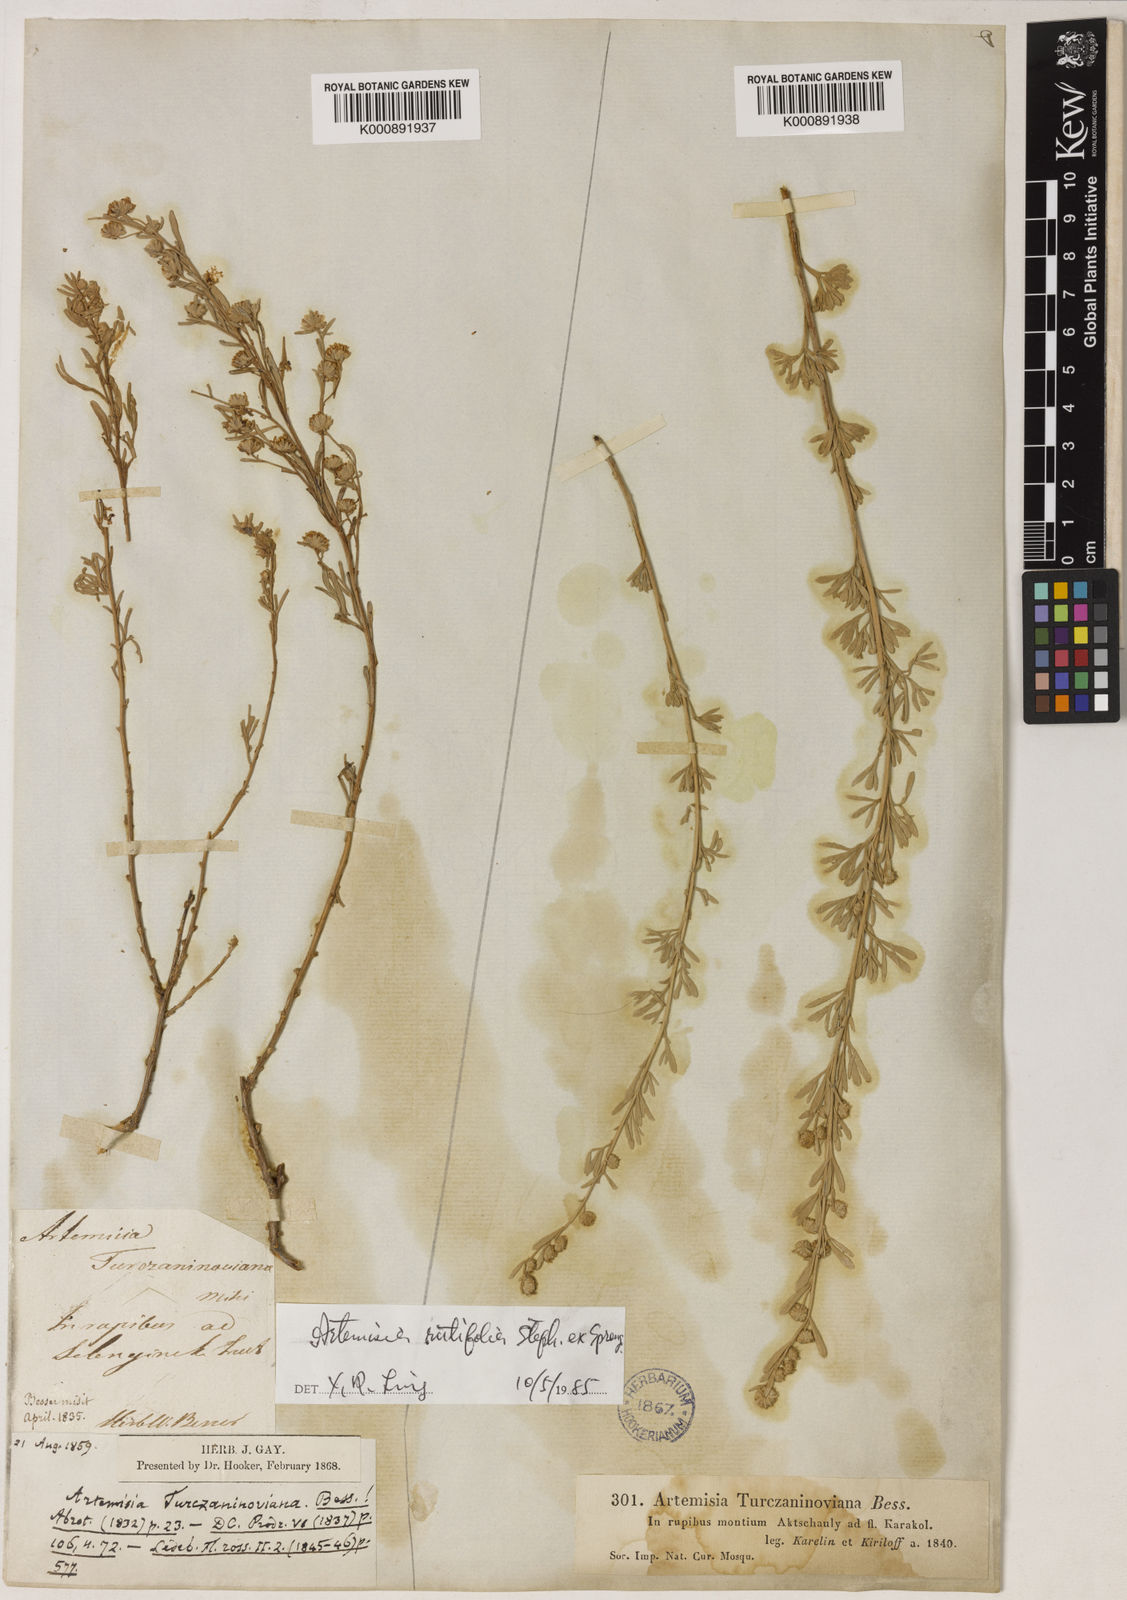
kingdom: Plantae
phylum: Tracheophyta
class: Magnoliopsida
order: Asterales
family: Asteraceae
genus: Artemisia
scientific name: Artemisia rutifolia
